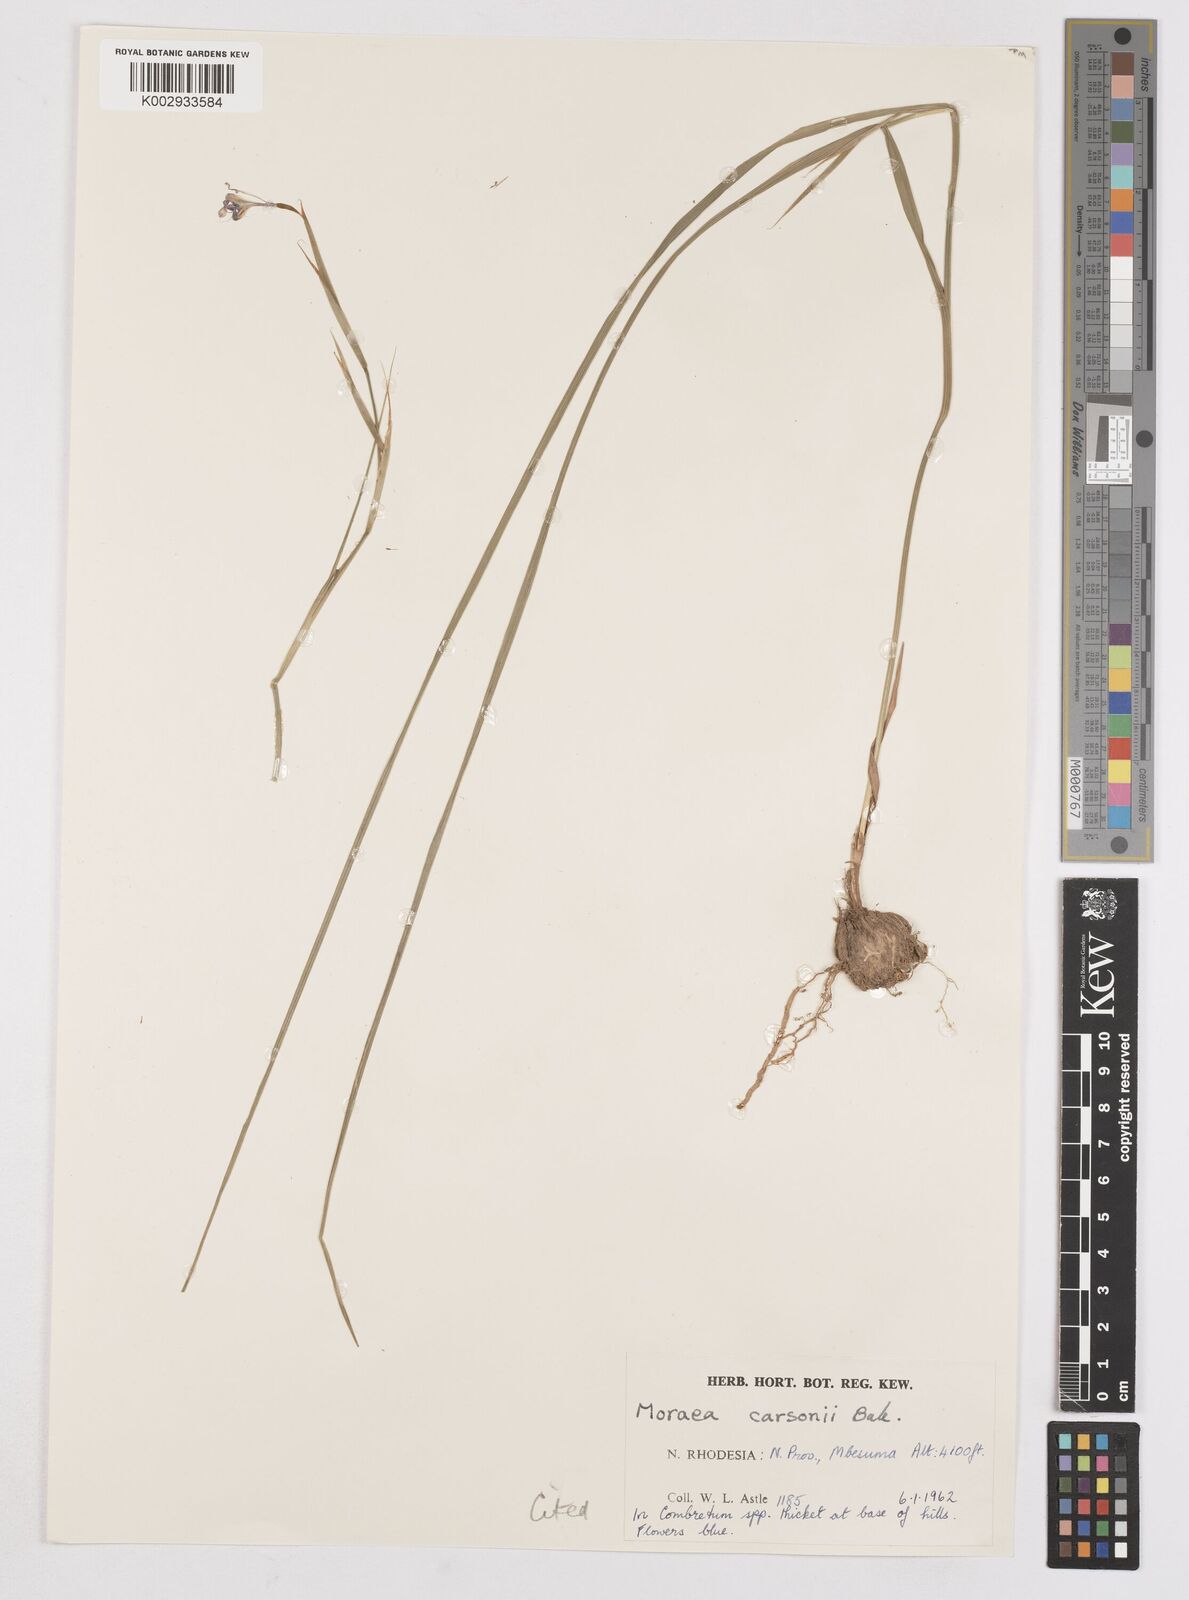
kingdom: Plantae
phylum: Tracheophyta
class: Liliopsida
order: Asparagales
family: Iridaceae
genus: Moraea
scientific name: Moraea carsonii
